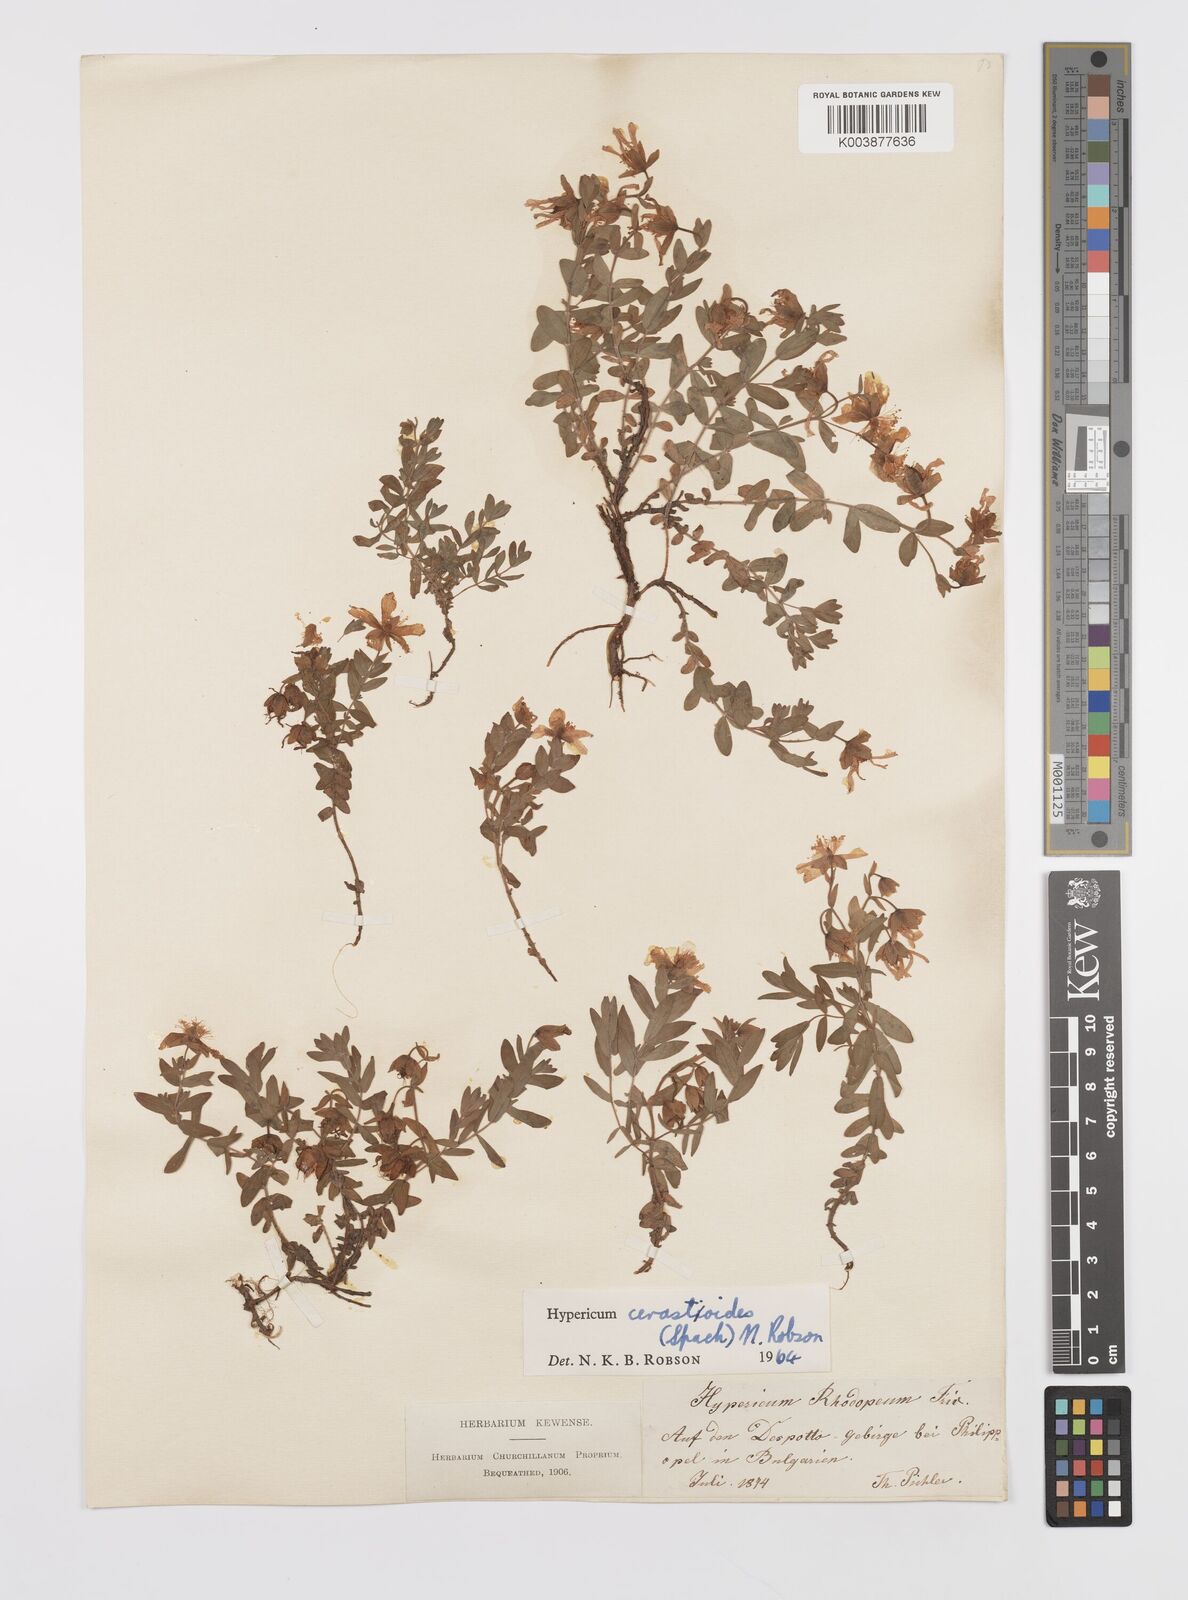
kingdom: Plantae
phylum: Tracheophyta
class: Magnoliopsida
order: Malpighiales
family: Hypericaceae
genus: Hypericum
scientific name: Hypericum cerastoides
